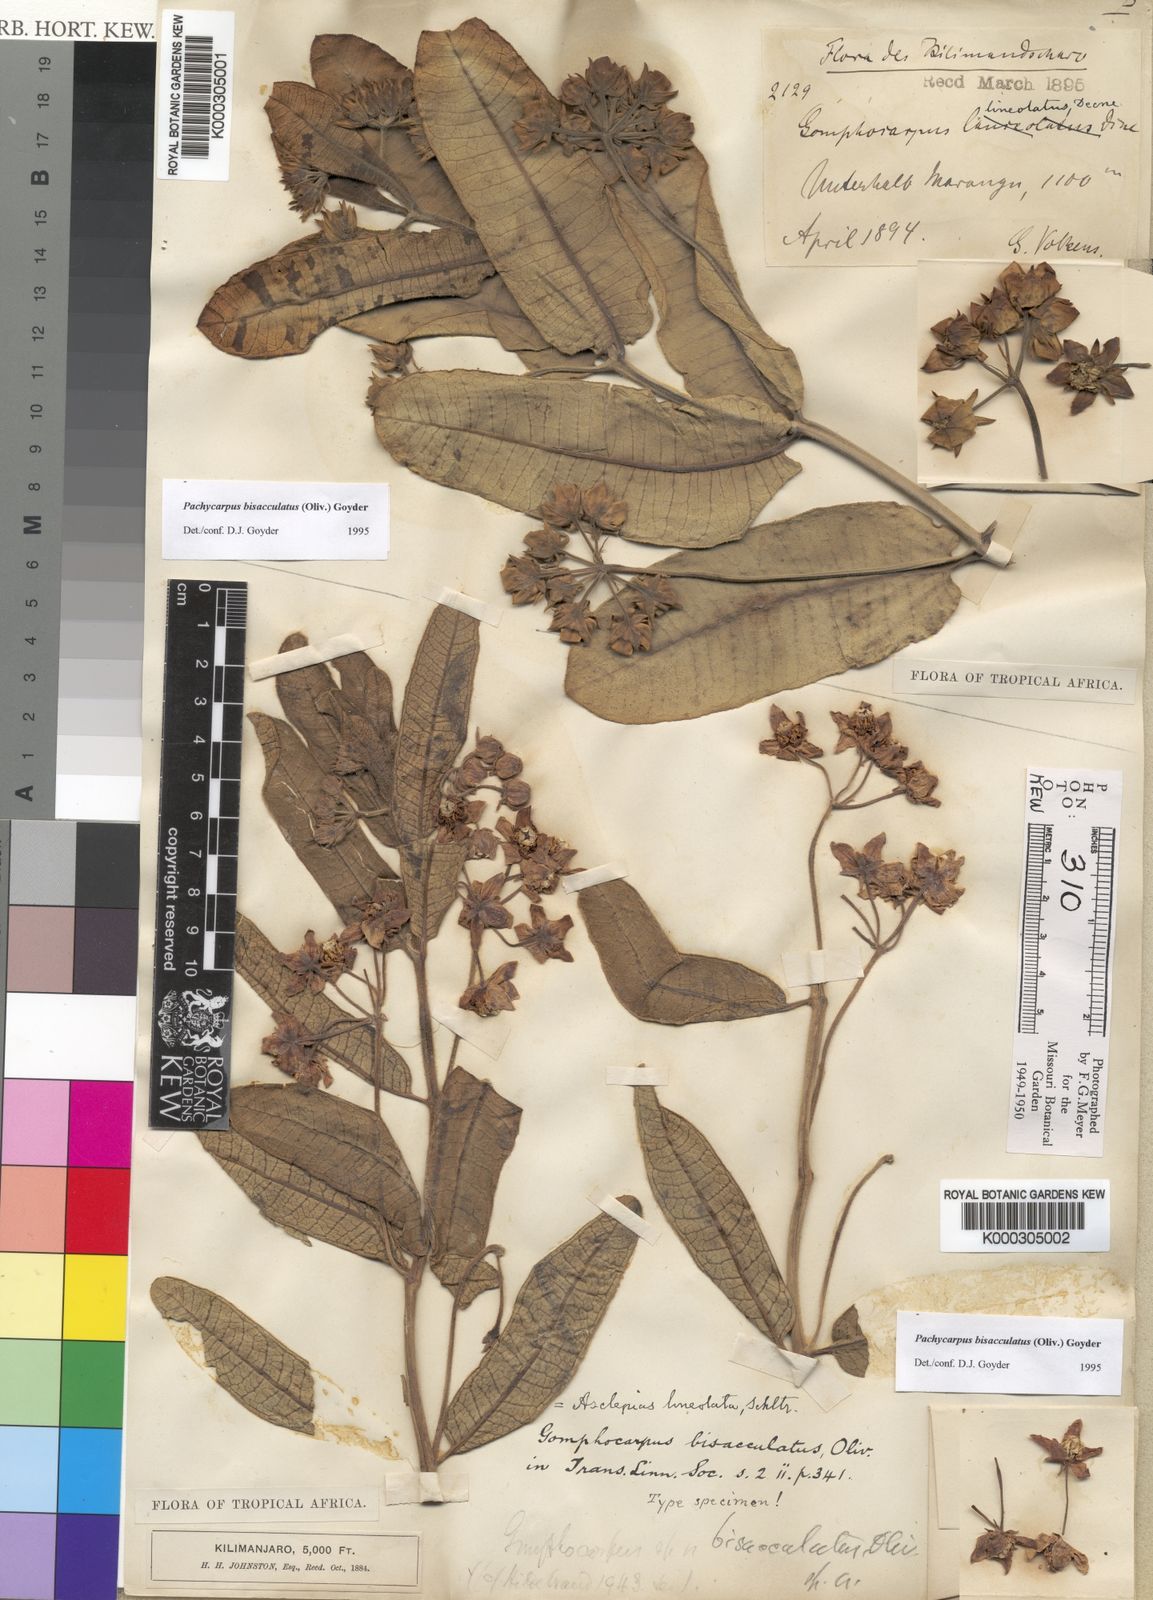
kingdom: Plantae
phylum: Tracheophyta
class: Magnoliopsida
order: Gentianales
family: Apocynaceae
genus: Pachycarpus
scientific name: Pachycarpus bisacculatus
